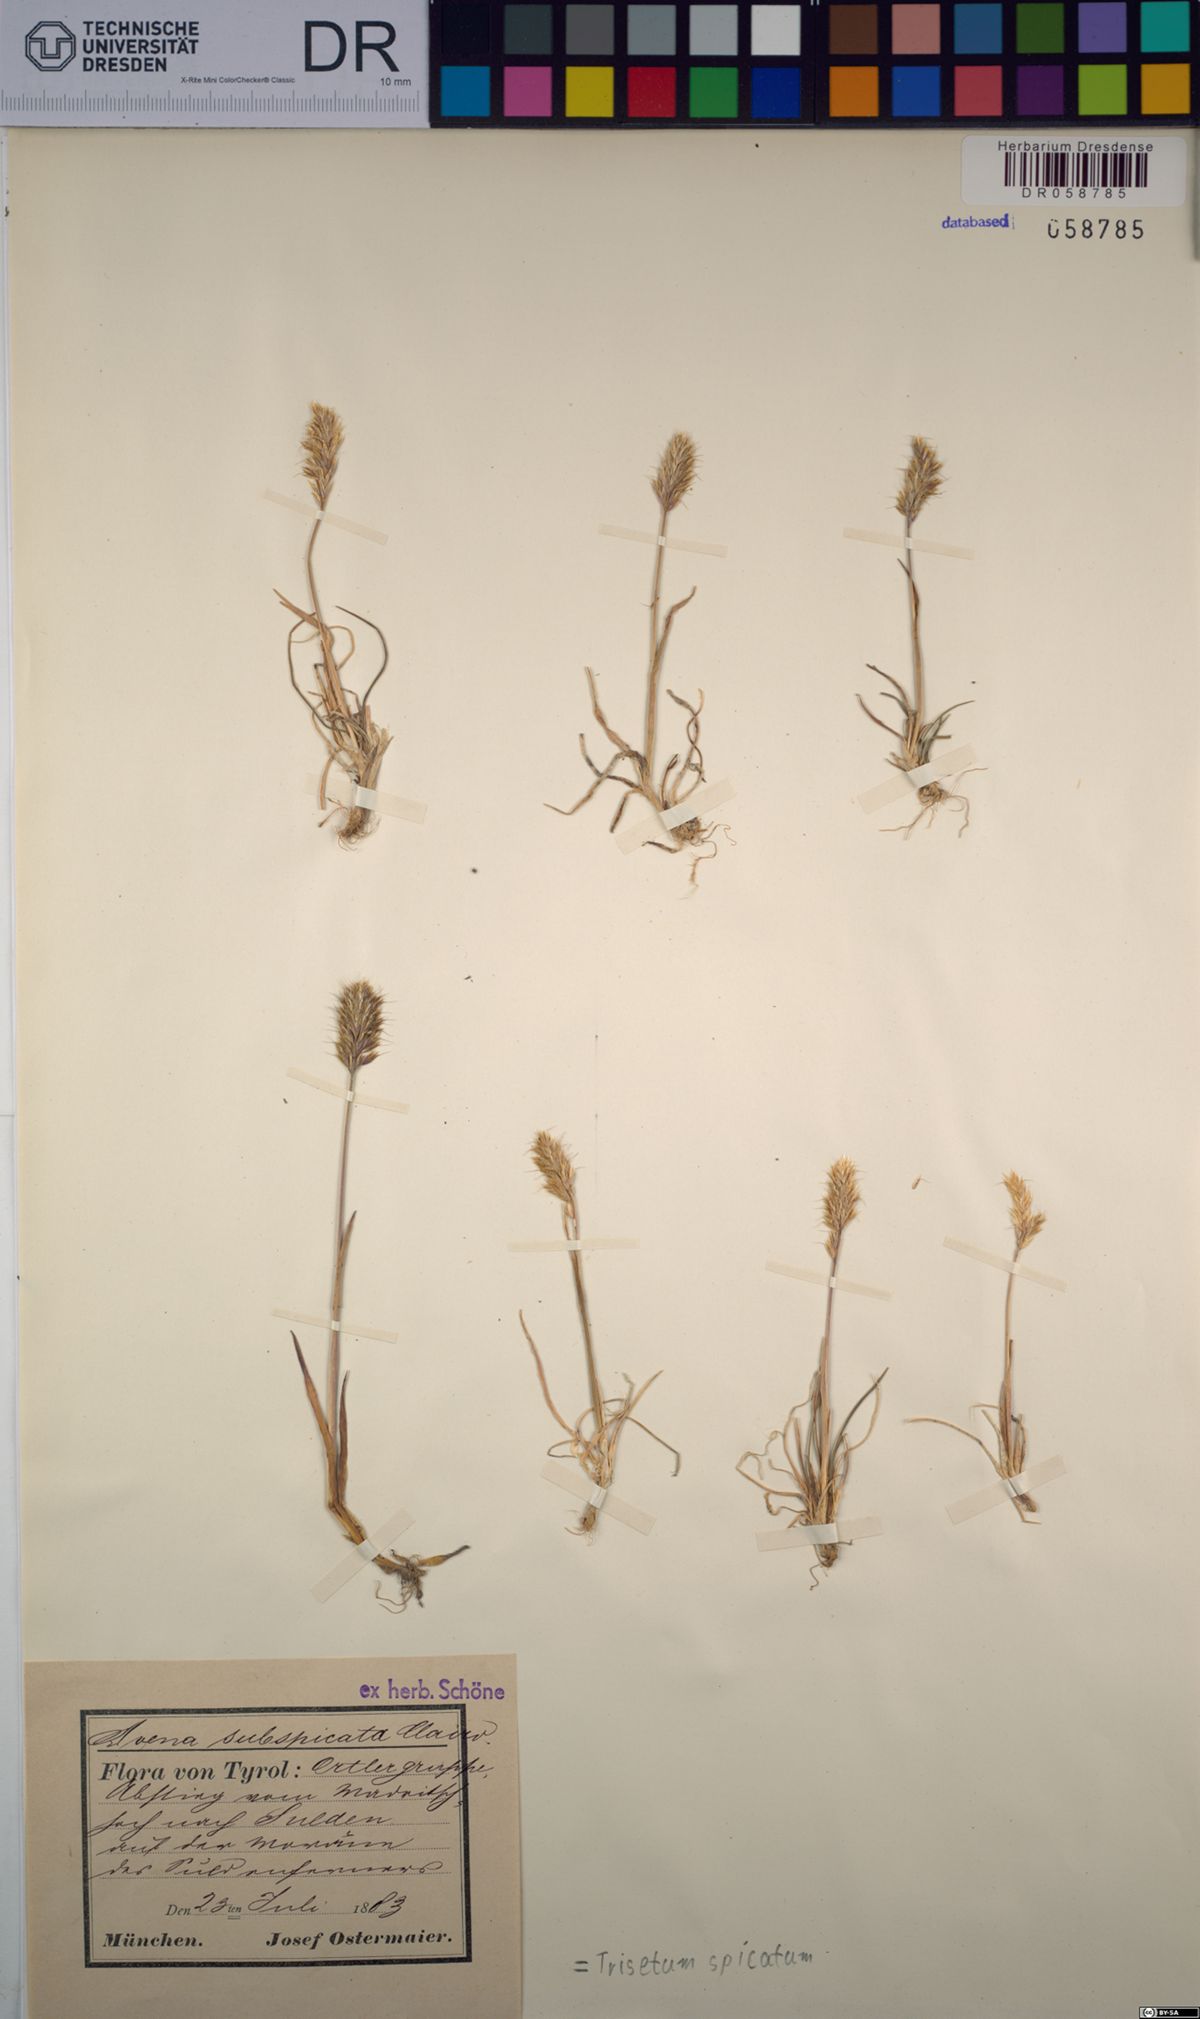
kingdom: Plantae
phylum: Tracheophyta
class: Liliopsida
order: Poales
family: Poaceae
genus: Koeleria
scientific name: Koeleria spicata
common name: Mountain trisetum
